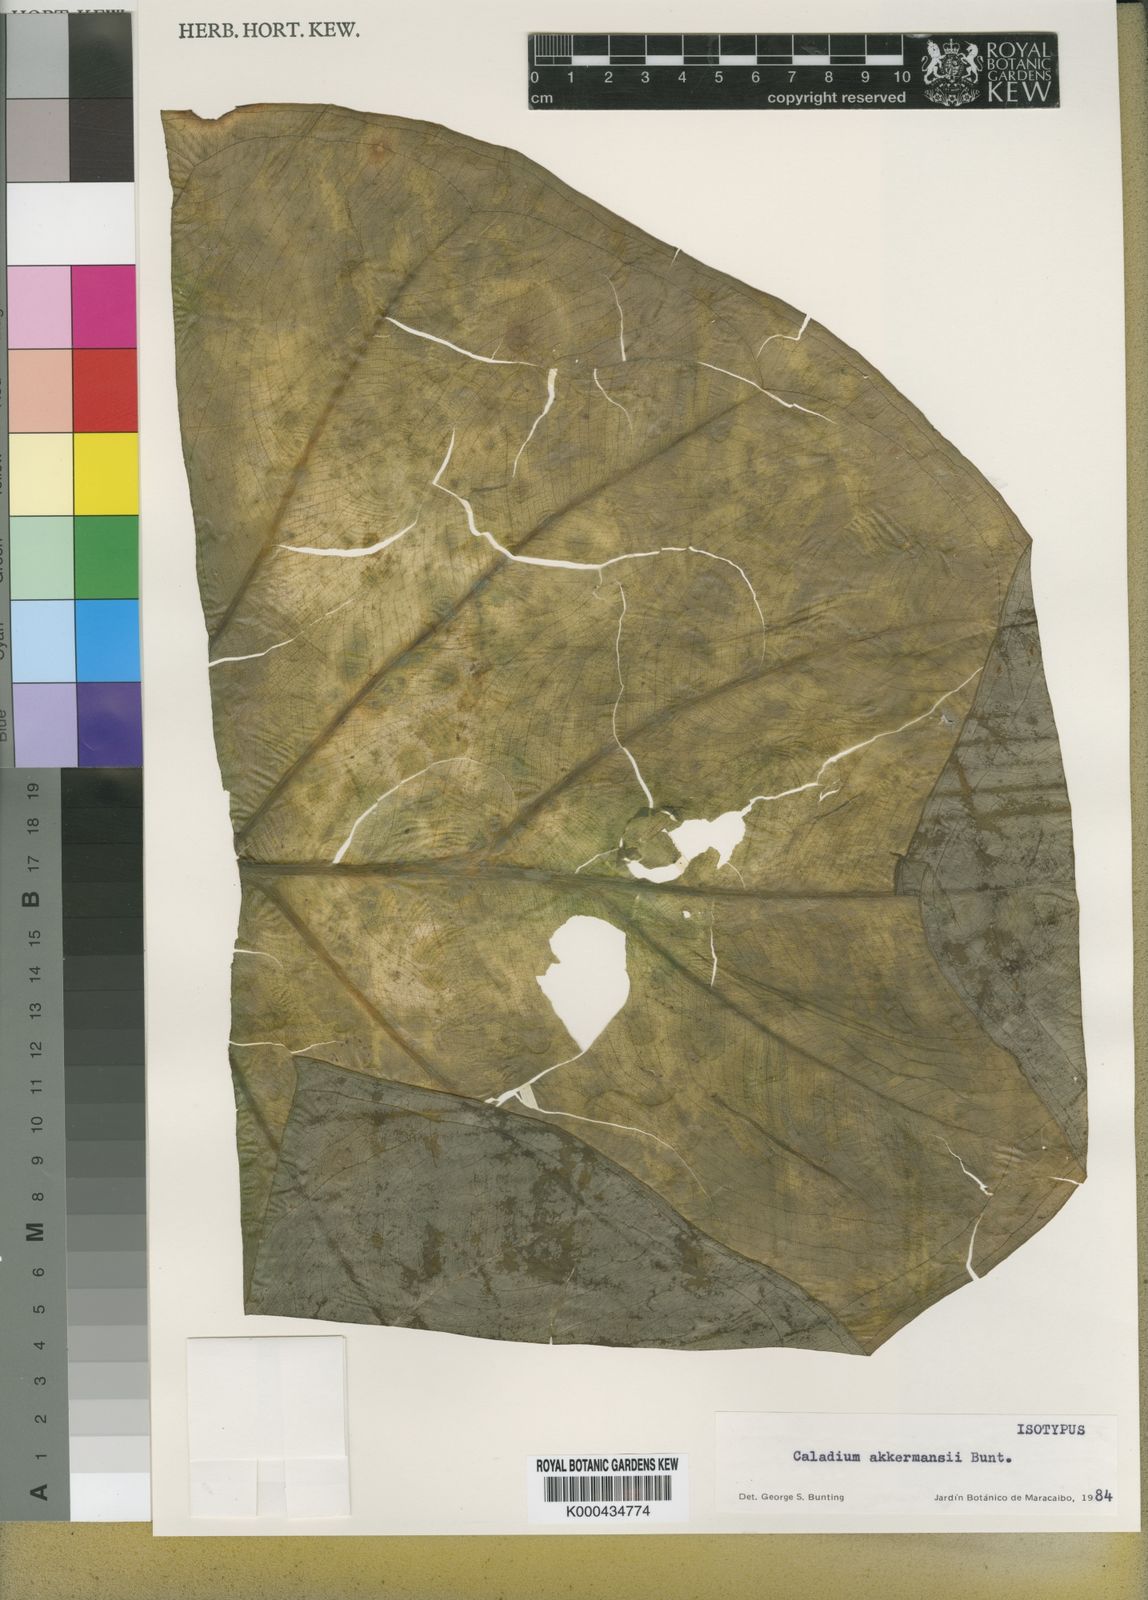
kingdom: Plantae
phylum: Tracheophyta
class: Liliopsida
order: Alismatales
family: Araceae
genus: Xanthosoma
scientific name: Xanthosoma akkermansii
